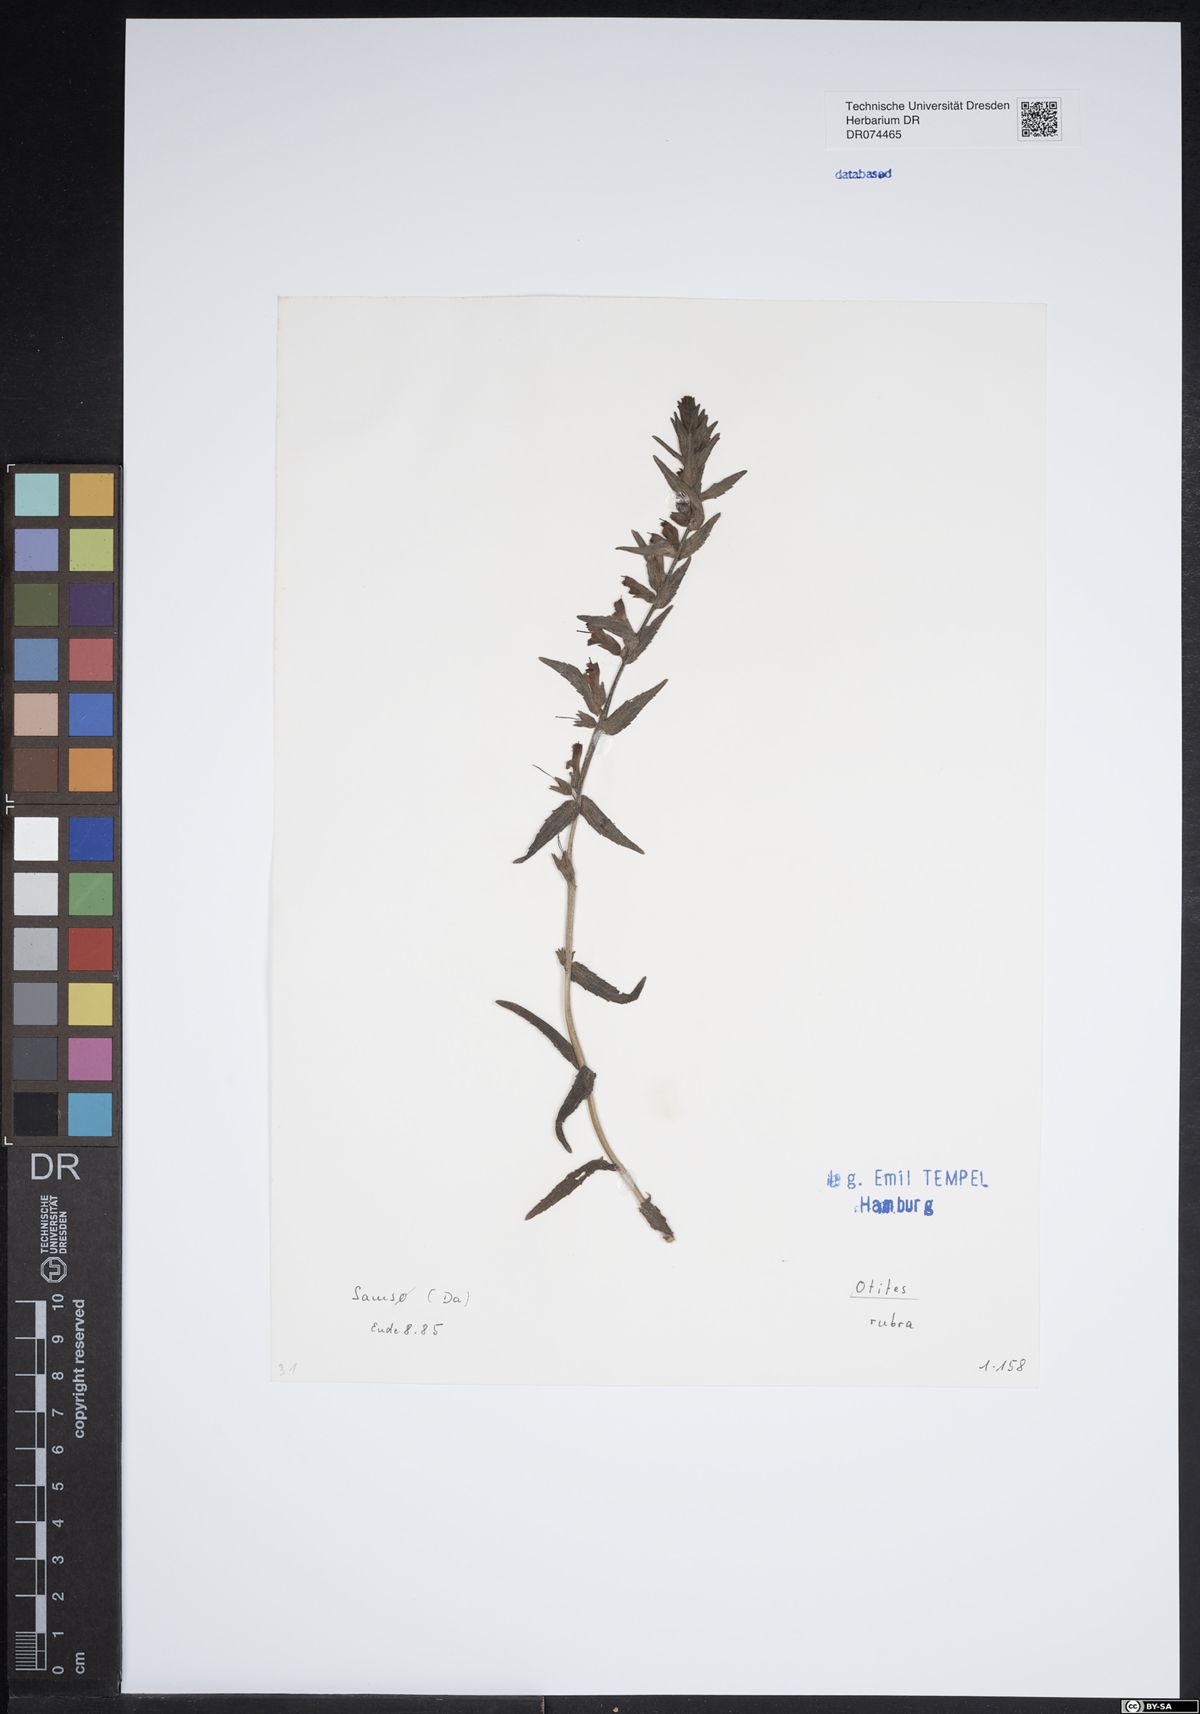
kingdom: Animalia
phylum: Arthropoda
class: Insecta
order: Diptera
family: Ulidiidae
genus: Otites
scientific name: Otites
